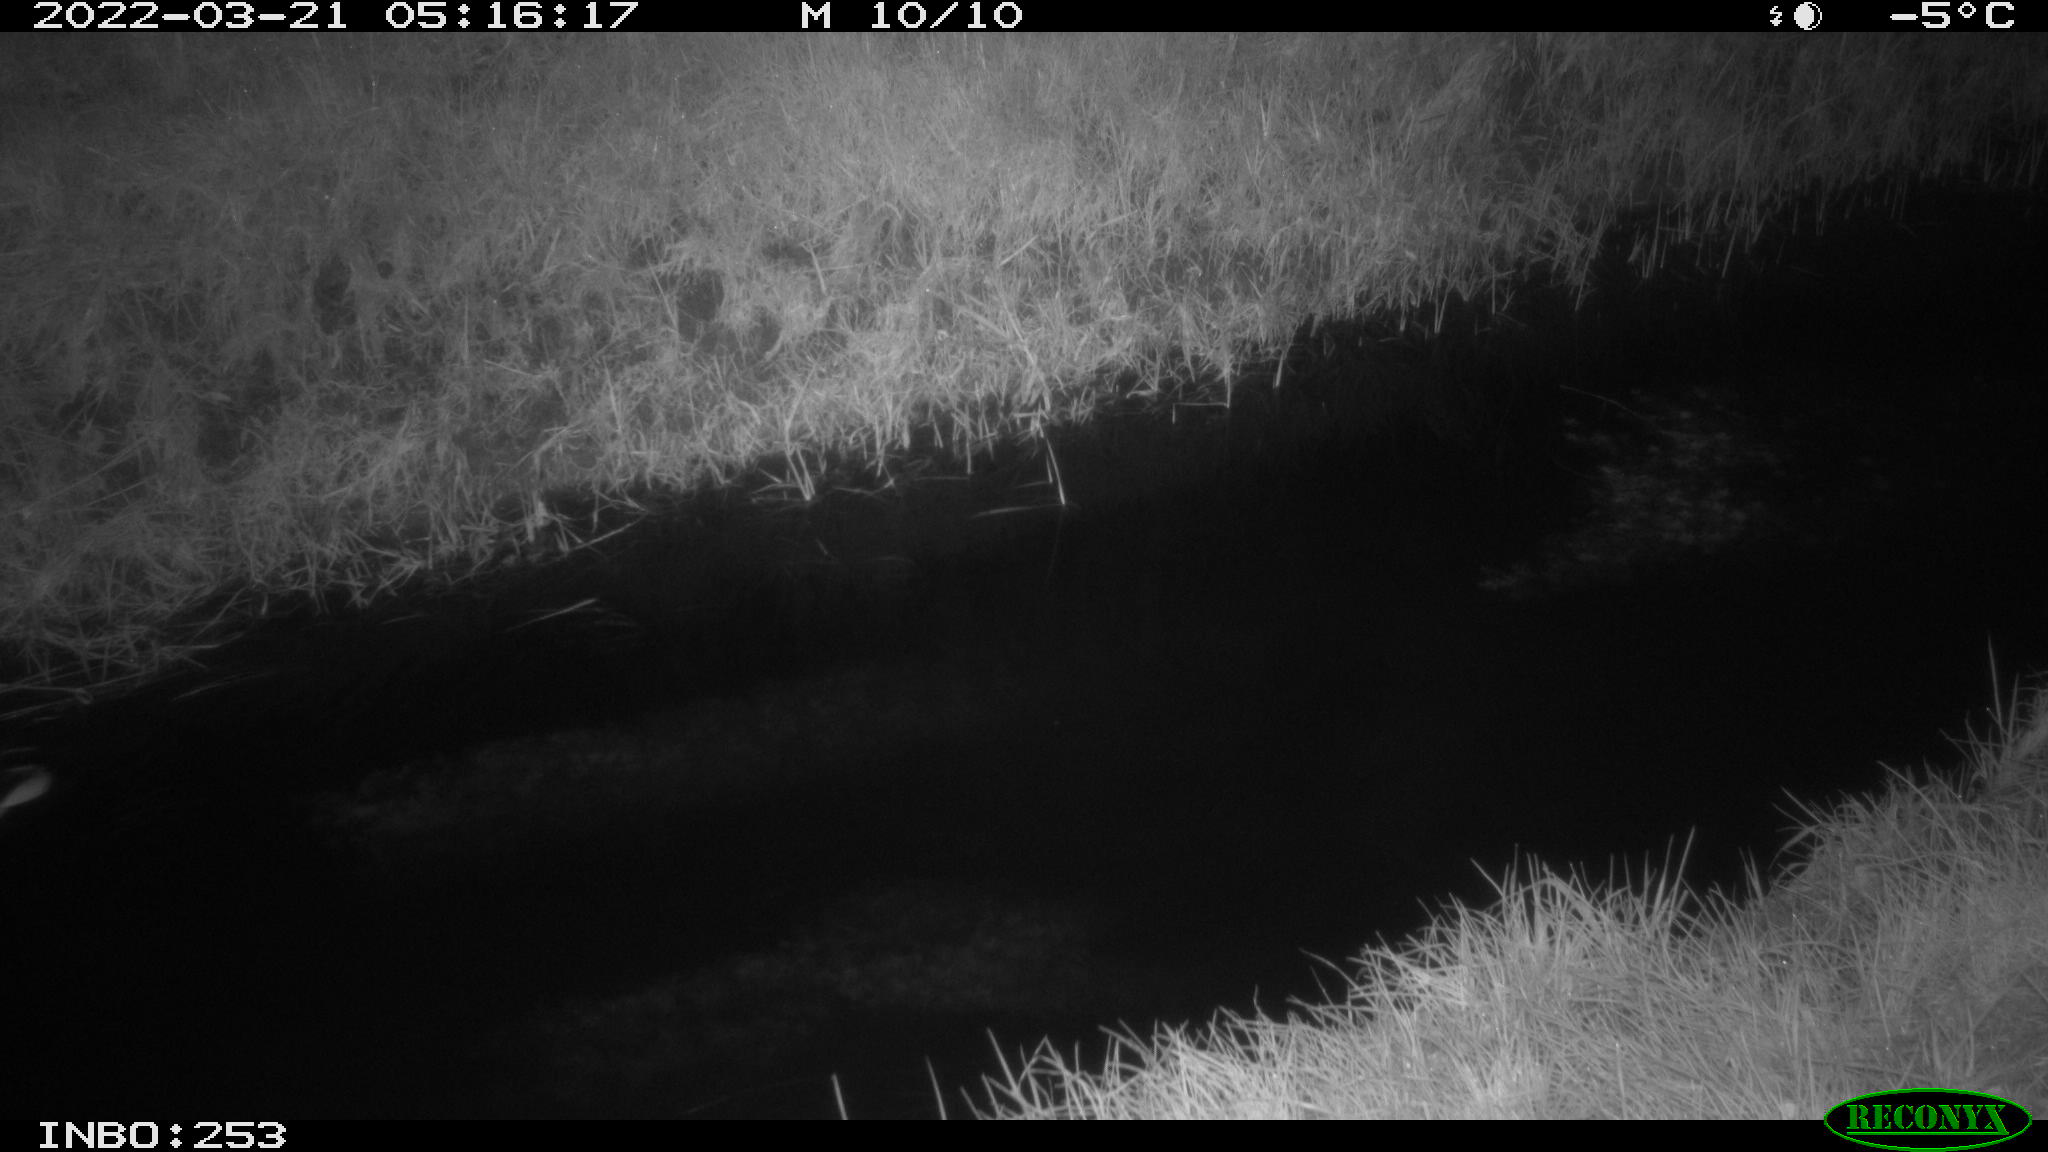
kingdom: Animalia
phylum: Chordata
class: Aves
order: Anseriformes
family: Anatidae
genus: Anas
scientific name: Anas platyrhynchos
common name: Mallard
